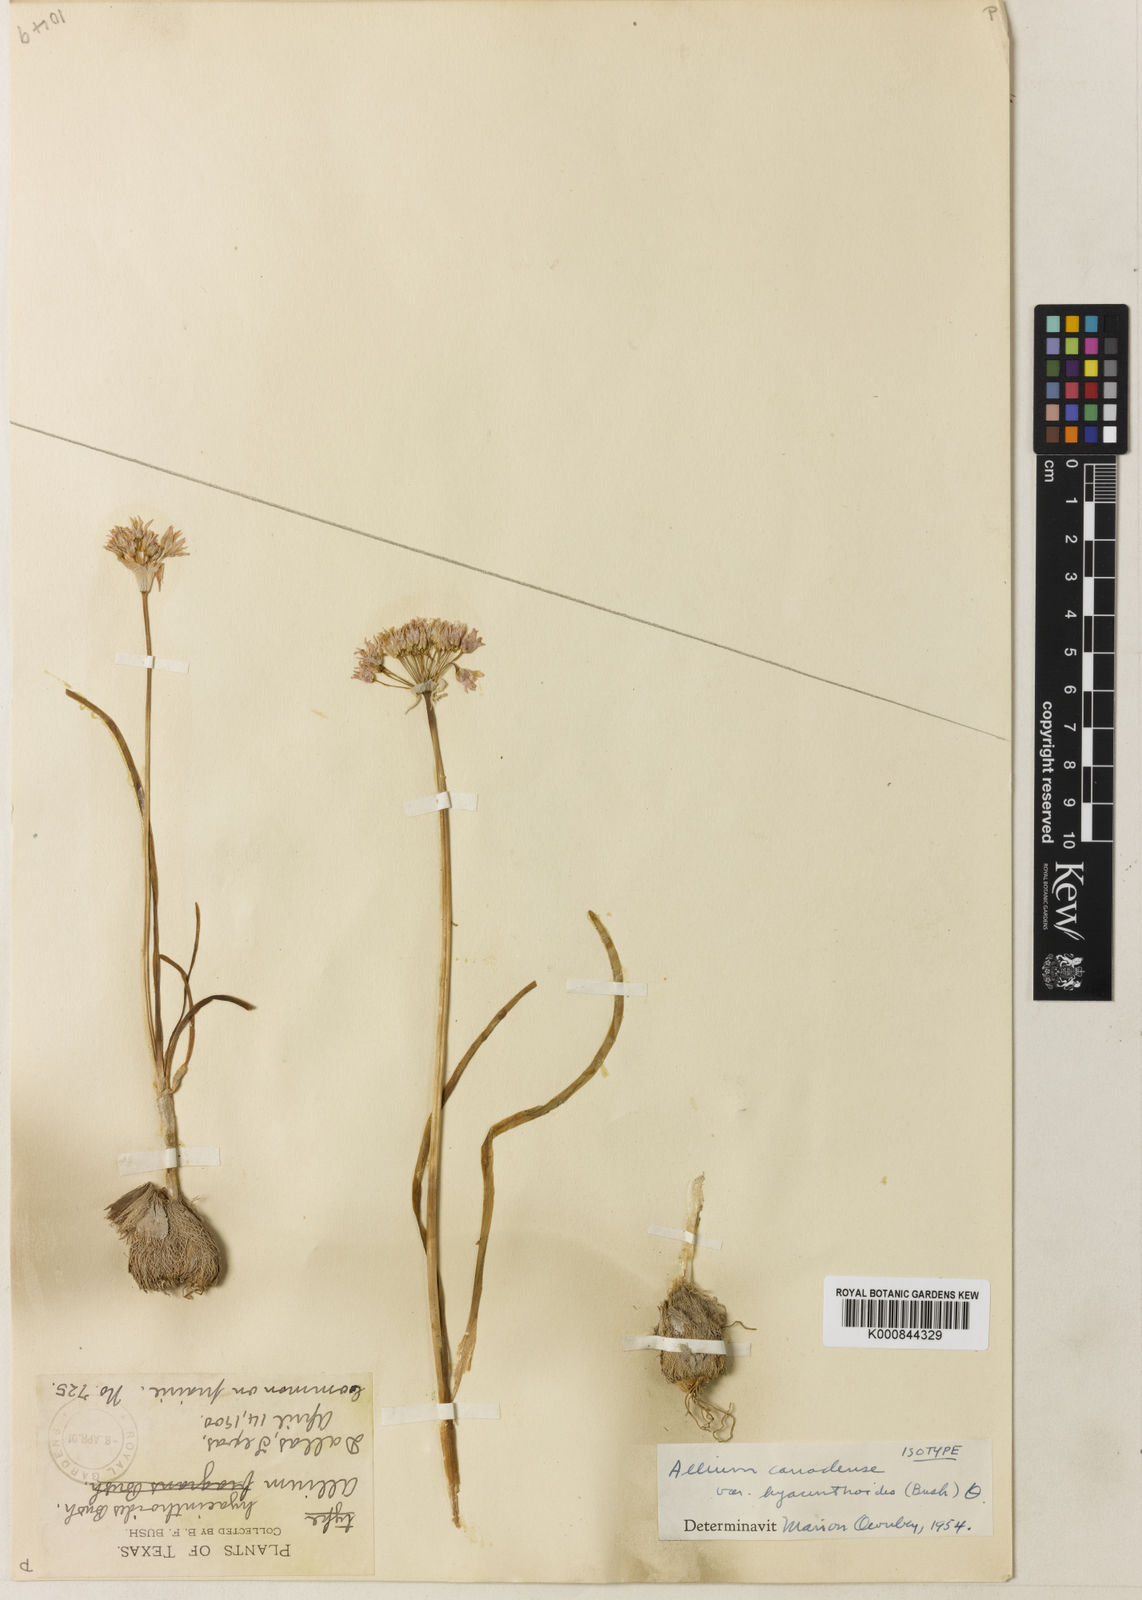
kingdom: Plantae
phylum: Tracheophyta
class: Liliopsida
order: Asparagales
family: Amaryllidaceae
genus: Allium
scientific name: Allium canadense
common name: Meadow garlic
